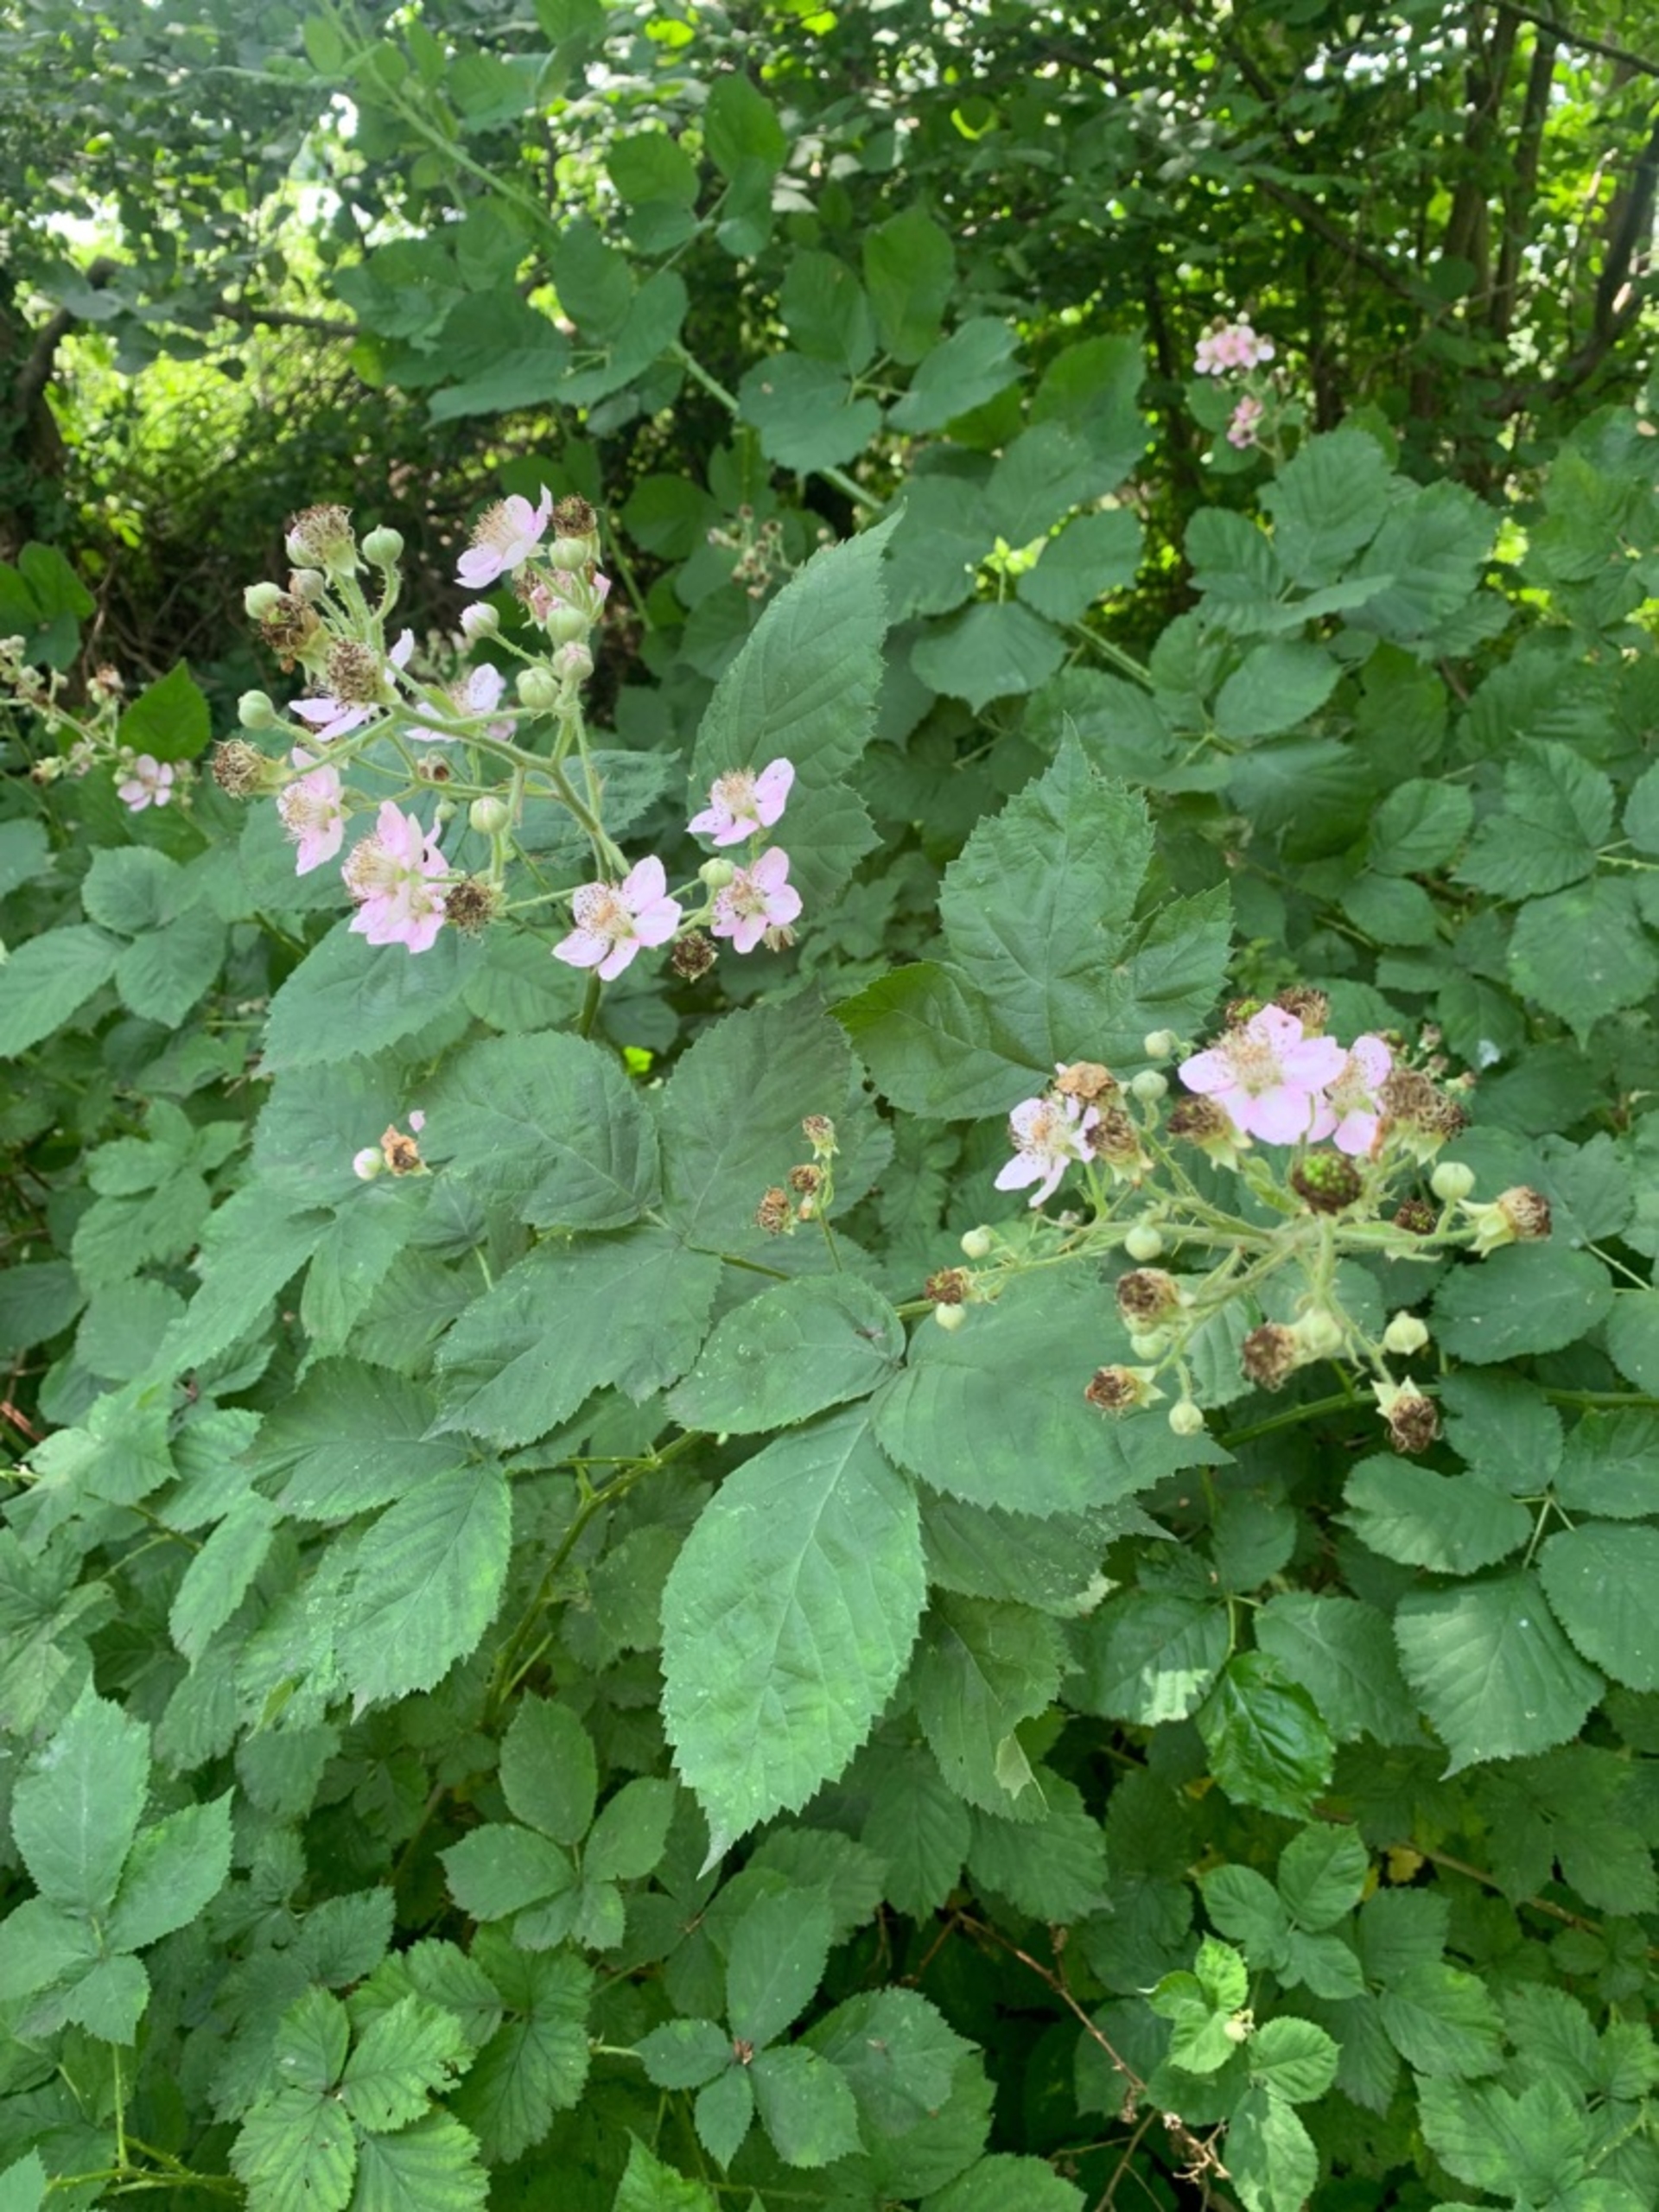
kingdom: Plantae
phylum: Tracheophyta
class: Magnoliopsida
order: Rosales
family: Rosaceae
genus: Rubus
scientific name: Rubus
